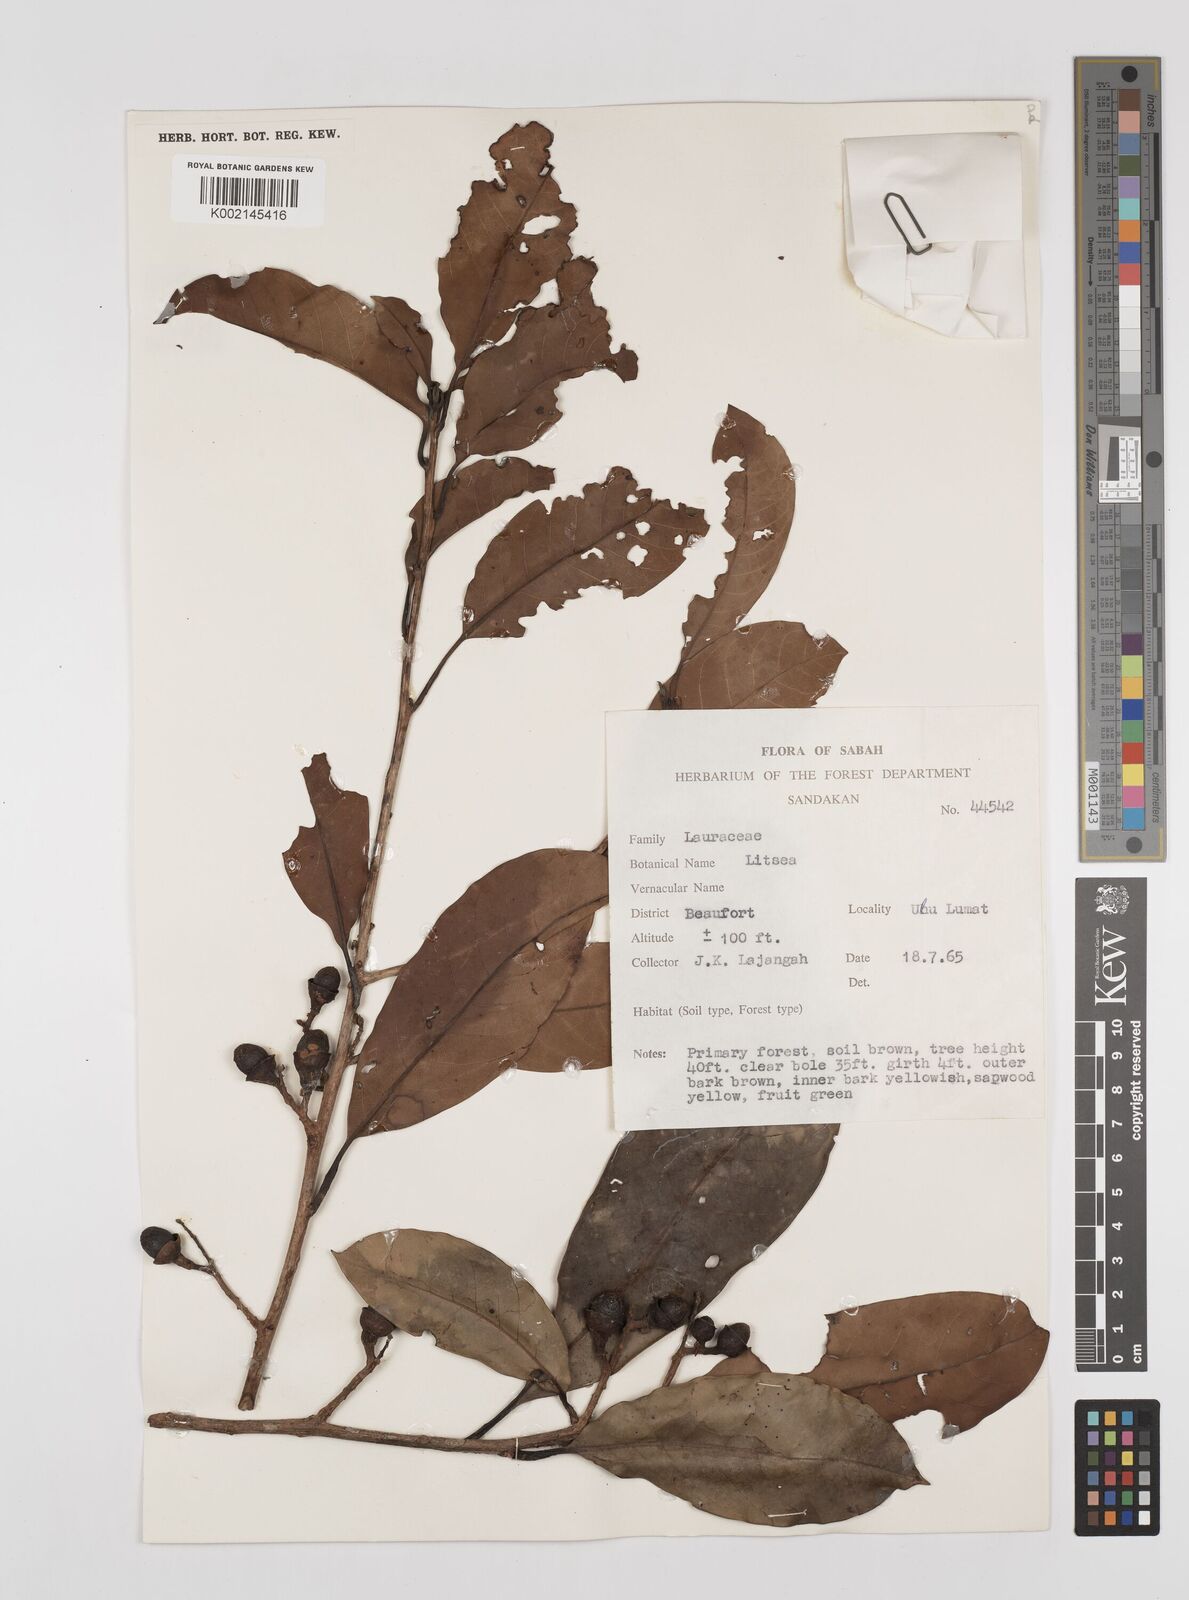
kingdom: Plantae
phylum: Tracheophyta
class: Magnoliopsida
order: Laurales
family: Lauraceae
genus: Litsea
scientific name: Litsea
